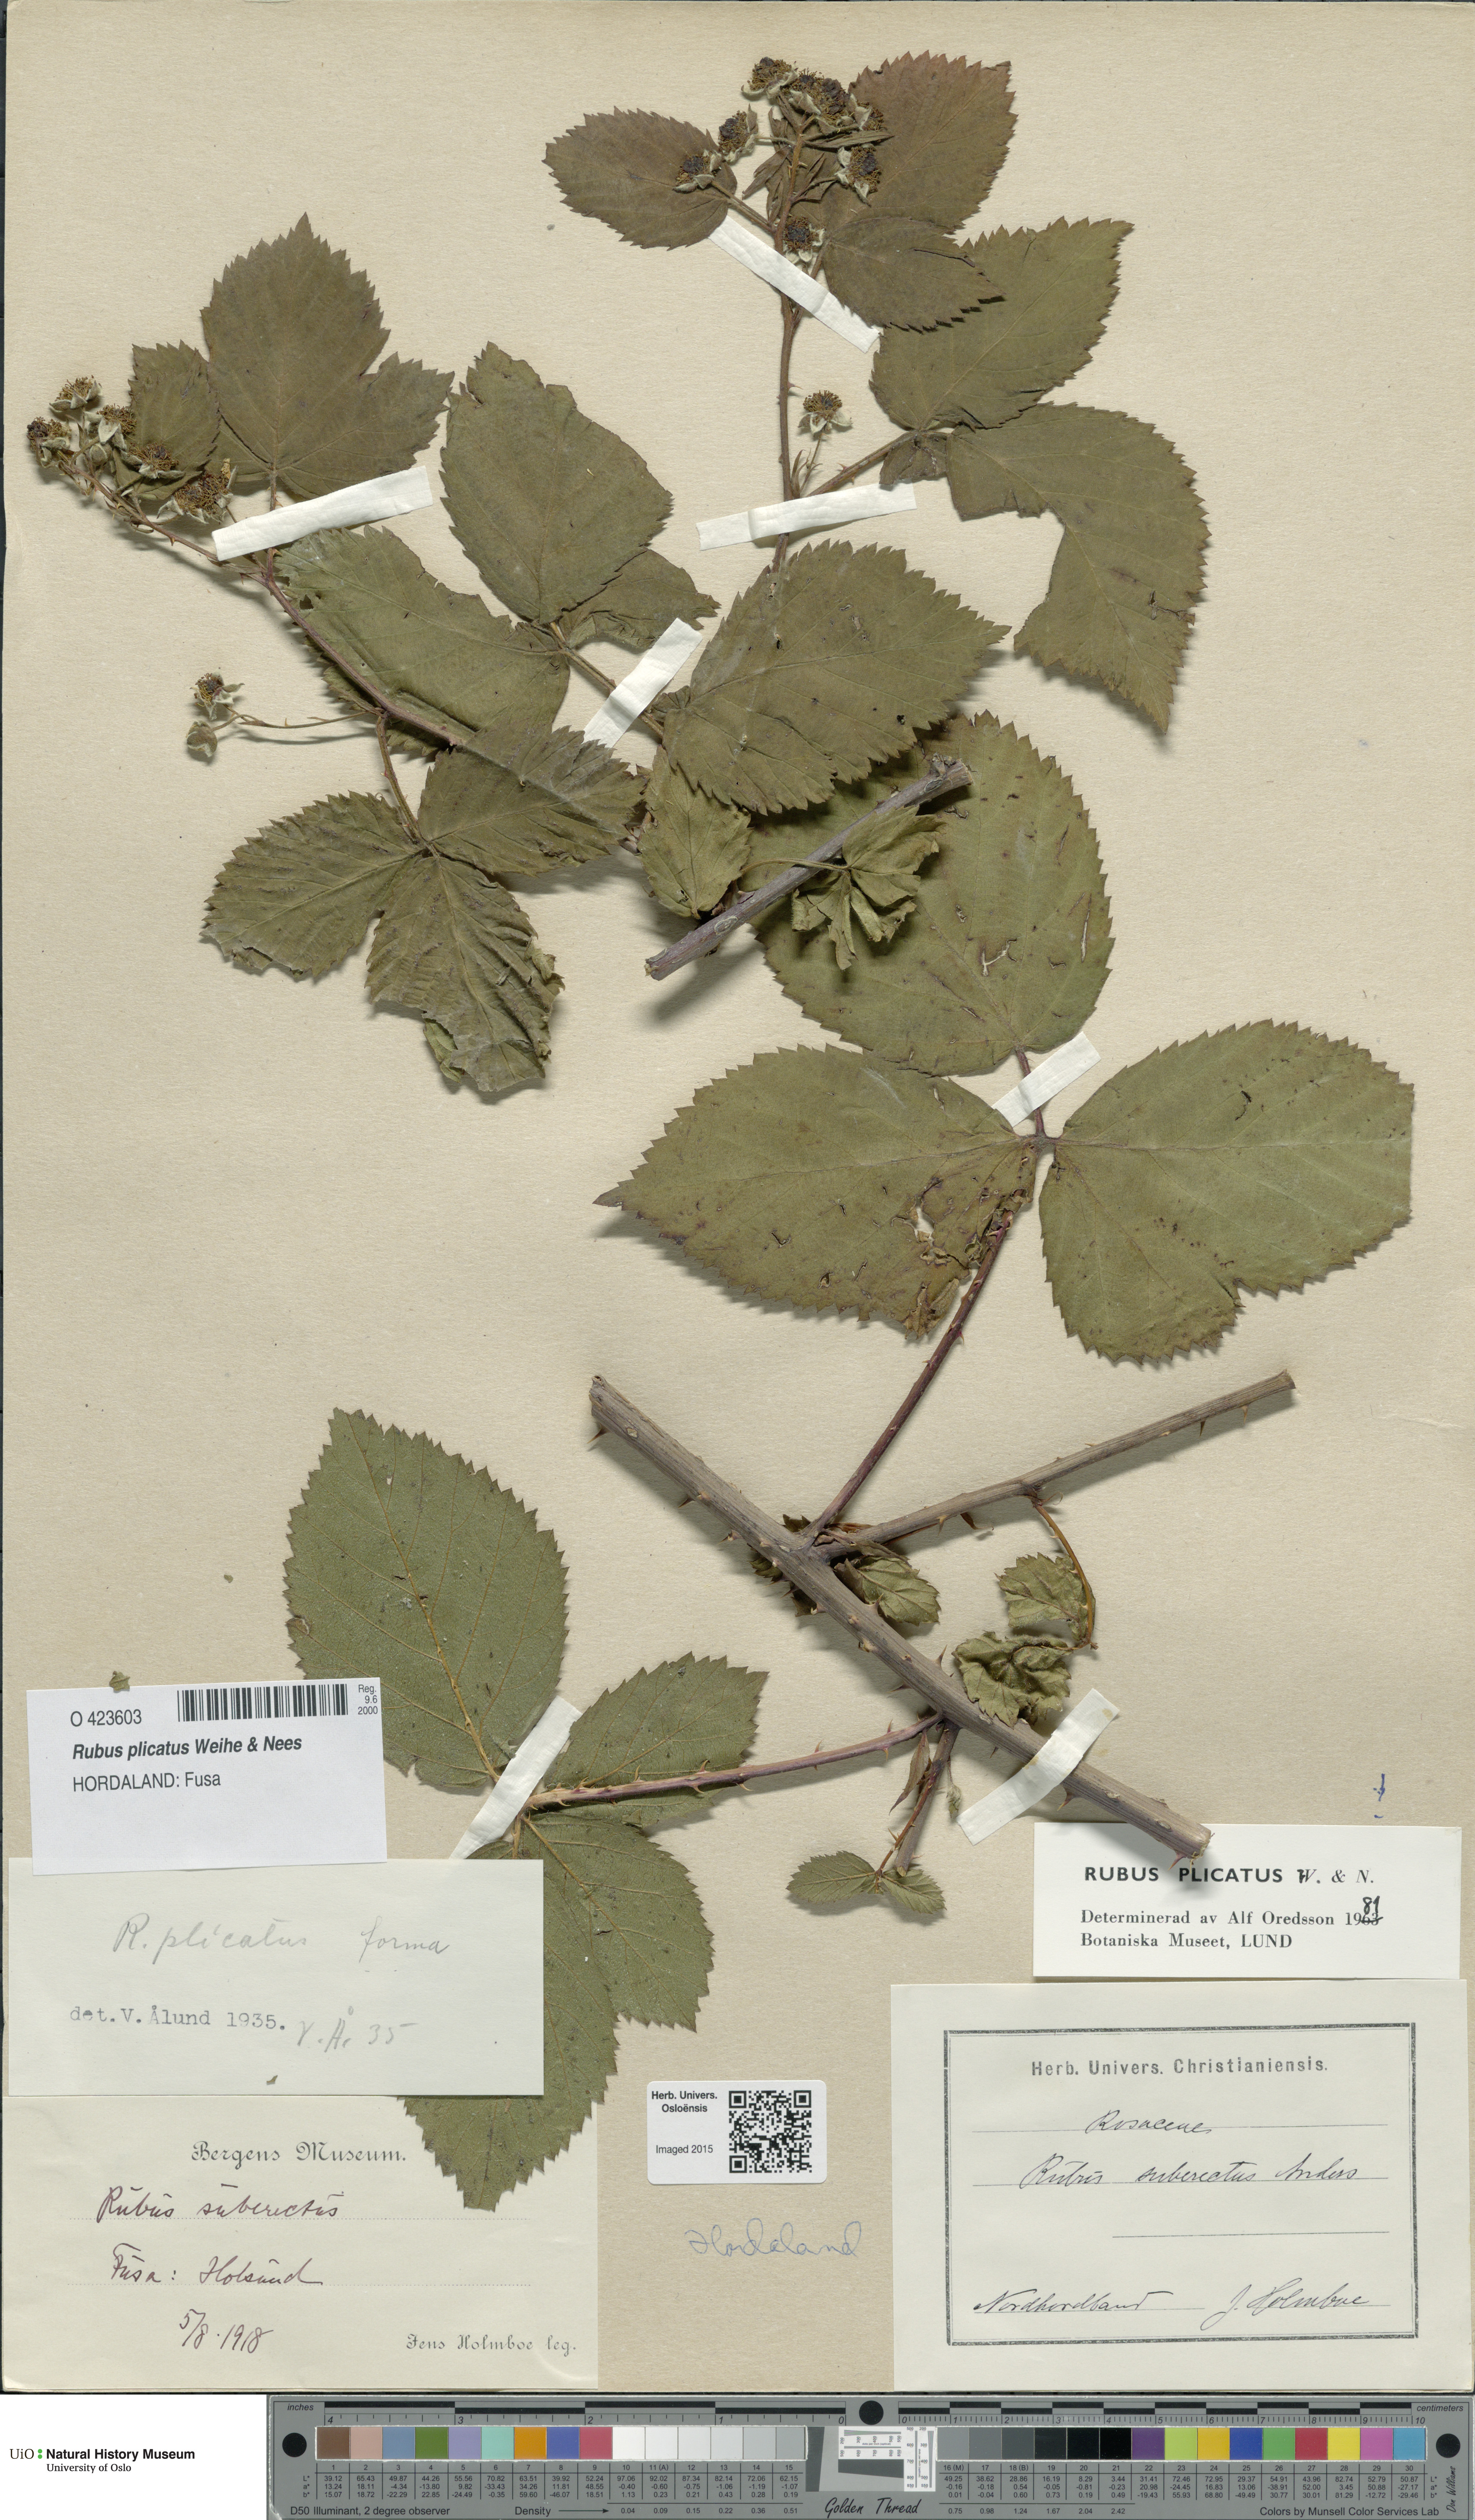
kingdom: Plantae
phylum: Tracheophyta
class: Magnoliopsida
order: Rosales
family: Rosaceae
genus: Rubus
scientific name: Rubus fruticosus
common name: Blackberry, bramble
